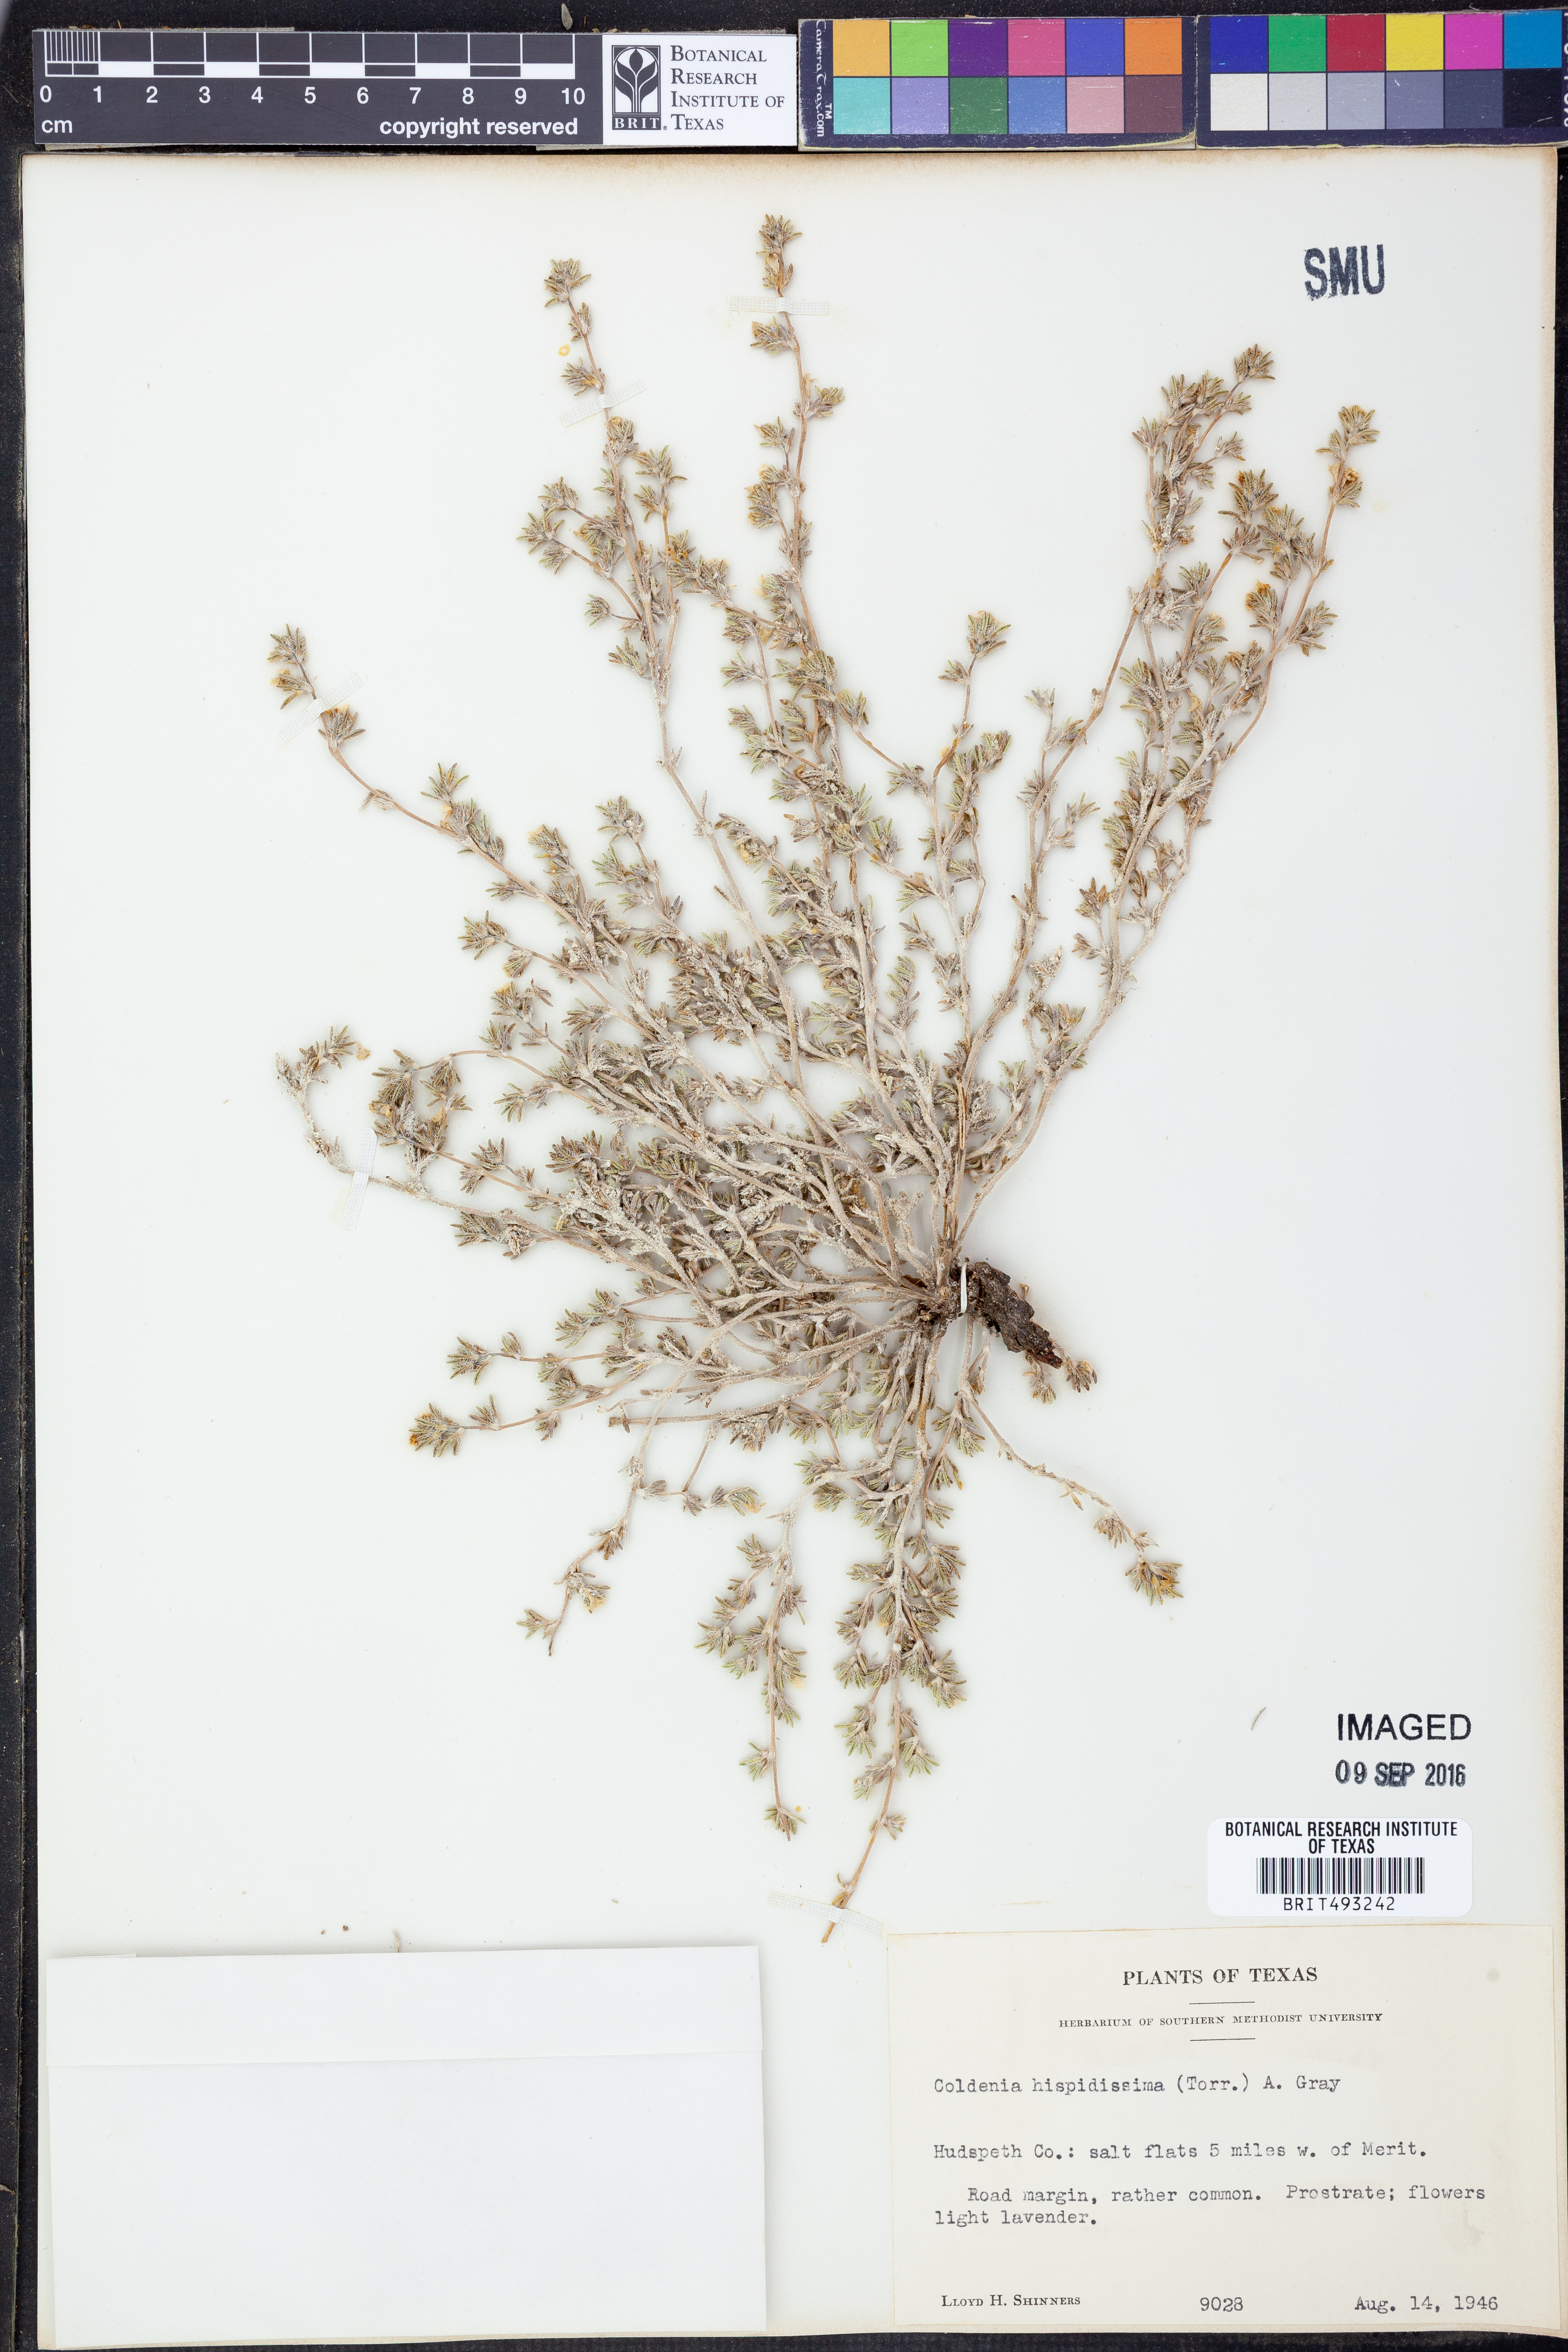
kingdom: Plantae
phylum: Tracheophyta
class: Magnoliopsida
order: Boraginales
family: Ehretiaceae
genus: Tiquilia
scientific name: Tiquilia hispidissima
